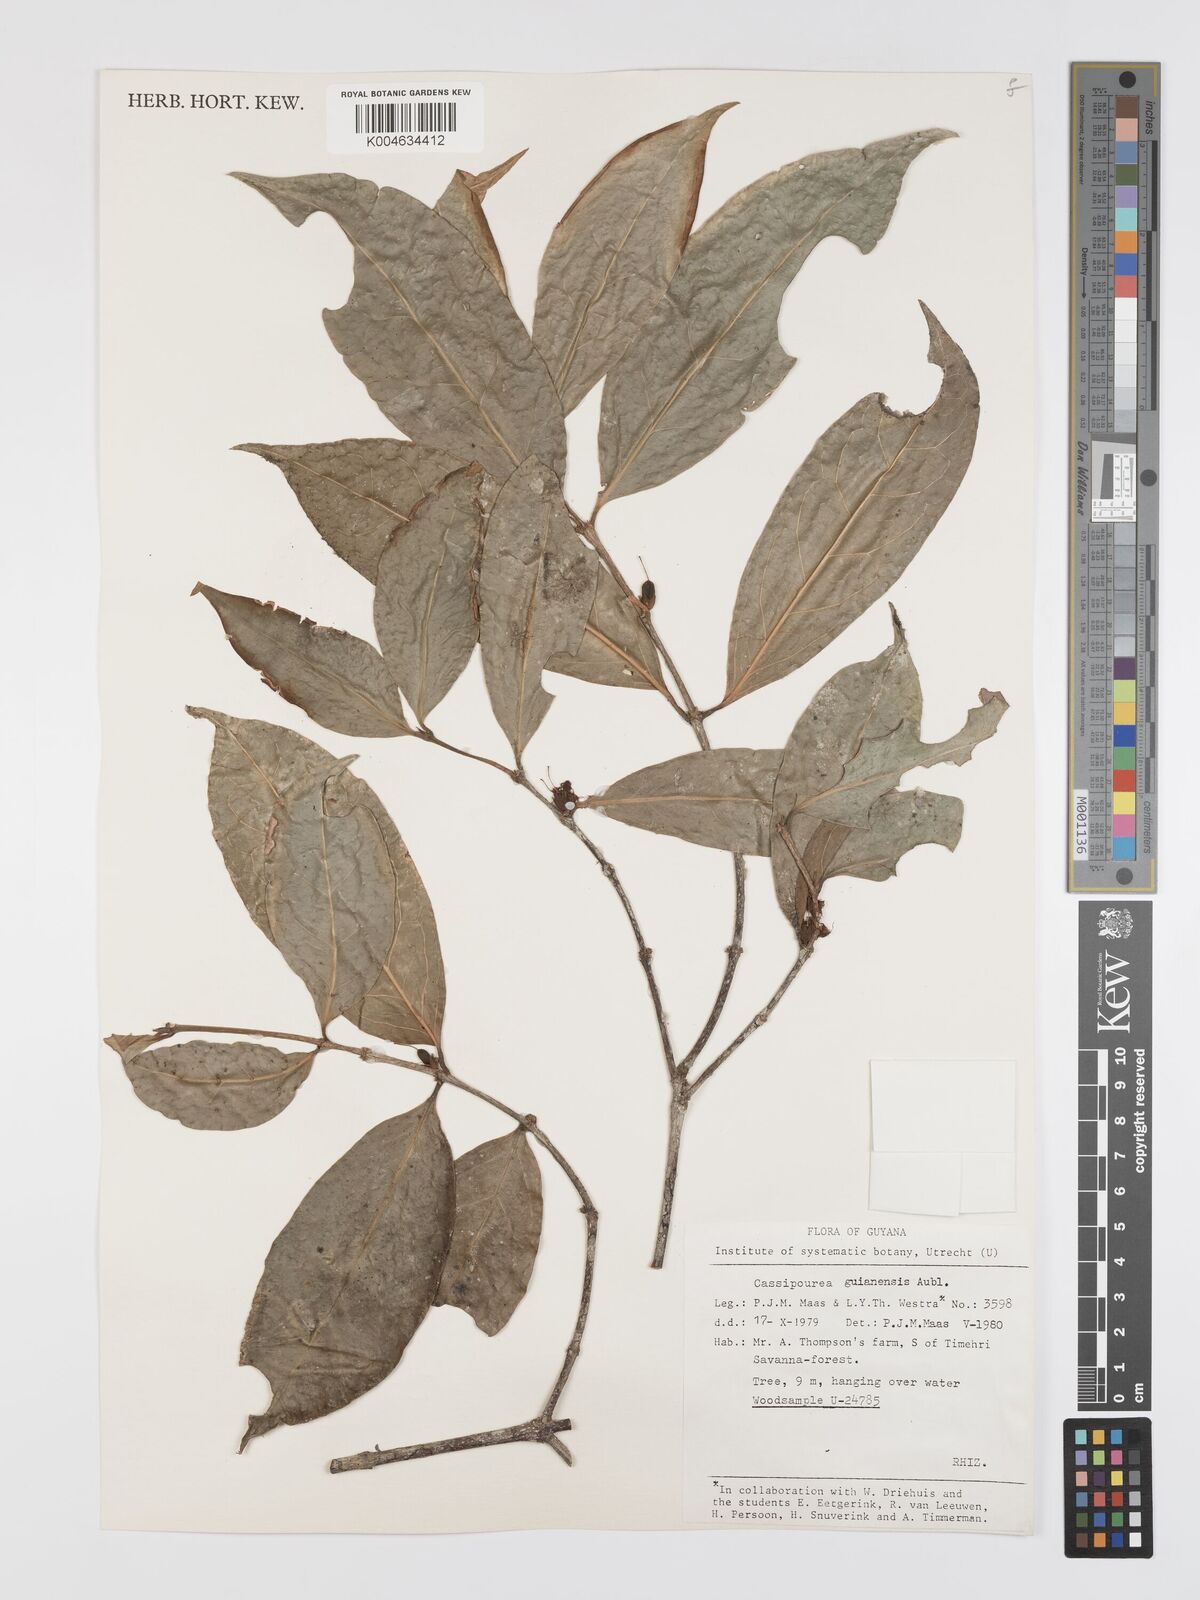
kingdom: Plantae
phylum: Tracheophyta
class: Magnoliopsida
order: Malpighiales
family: Rhizophoraceae
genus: Cassipourea
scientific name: Cassipourea guianensis
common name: Bastard waterwood
